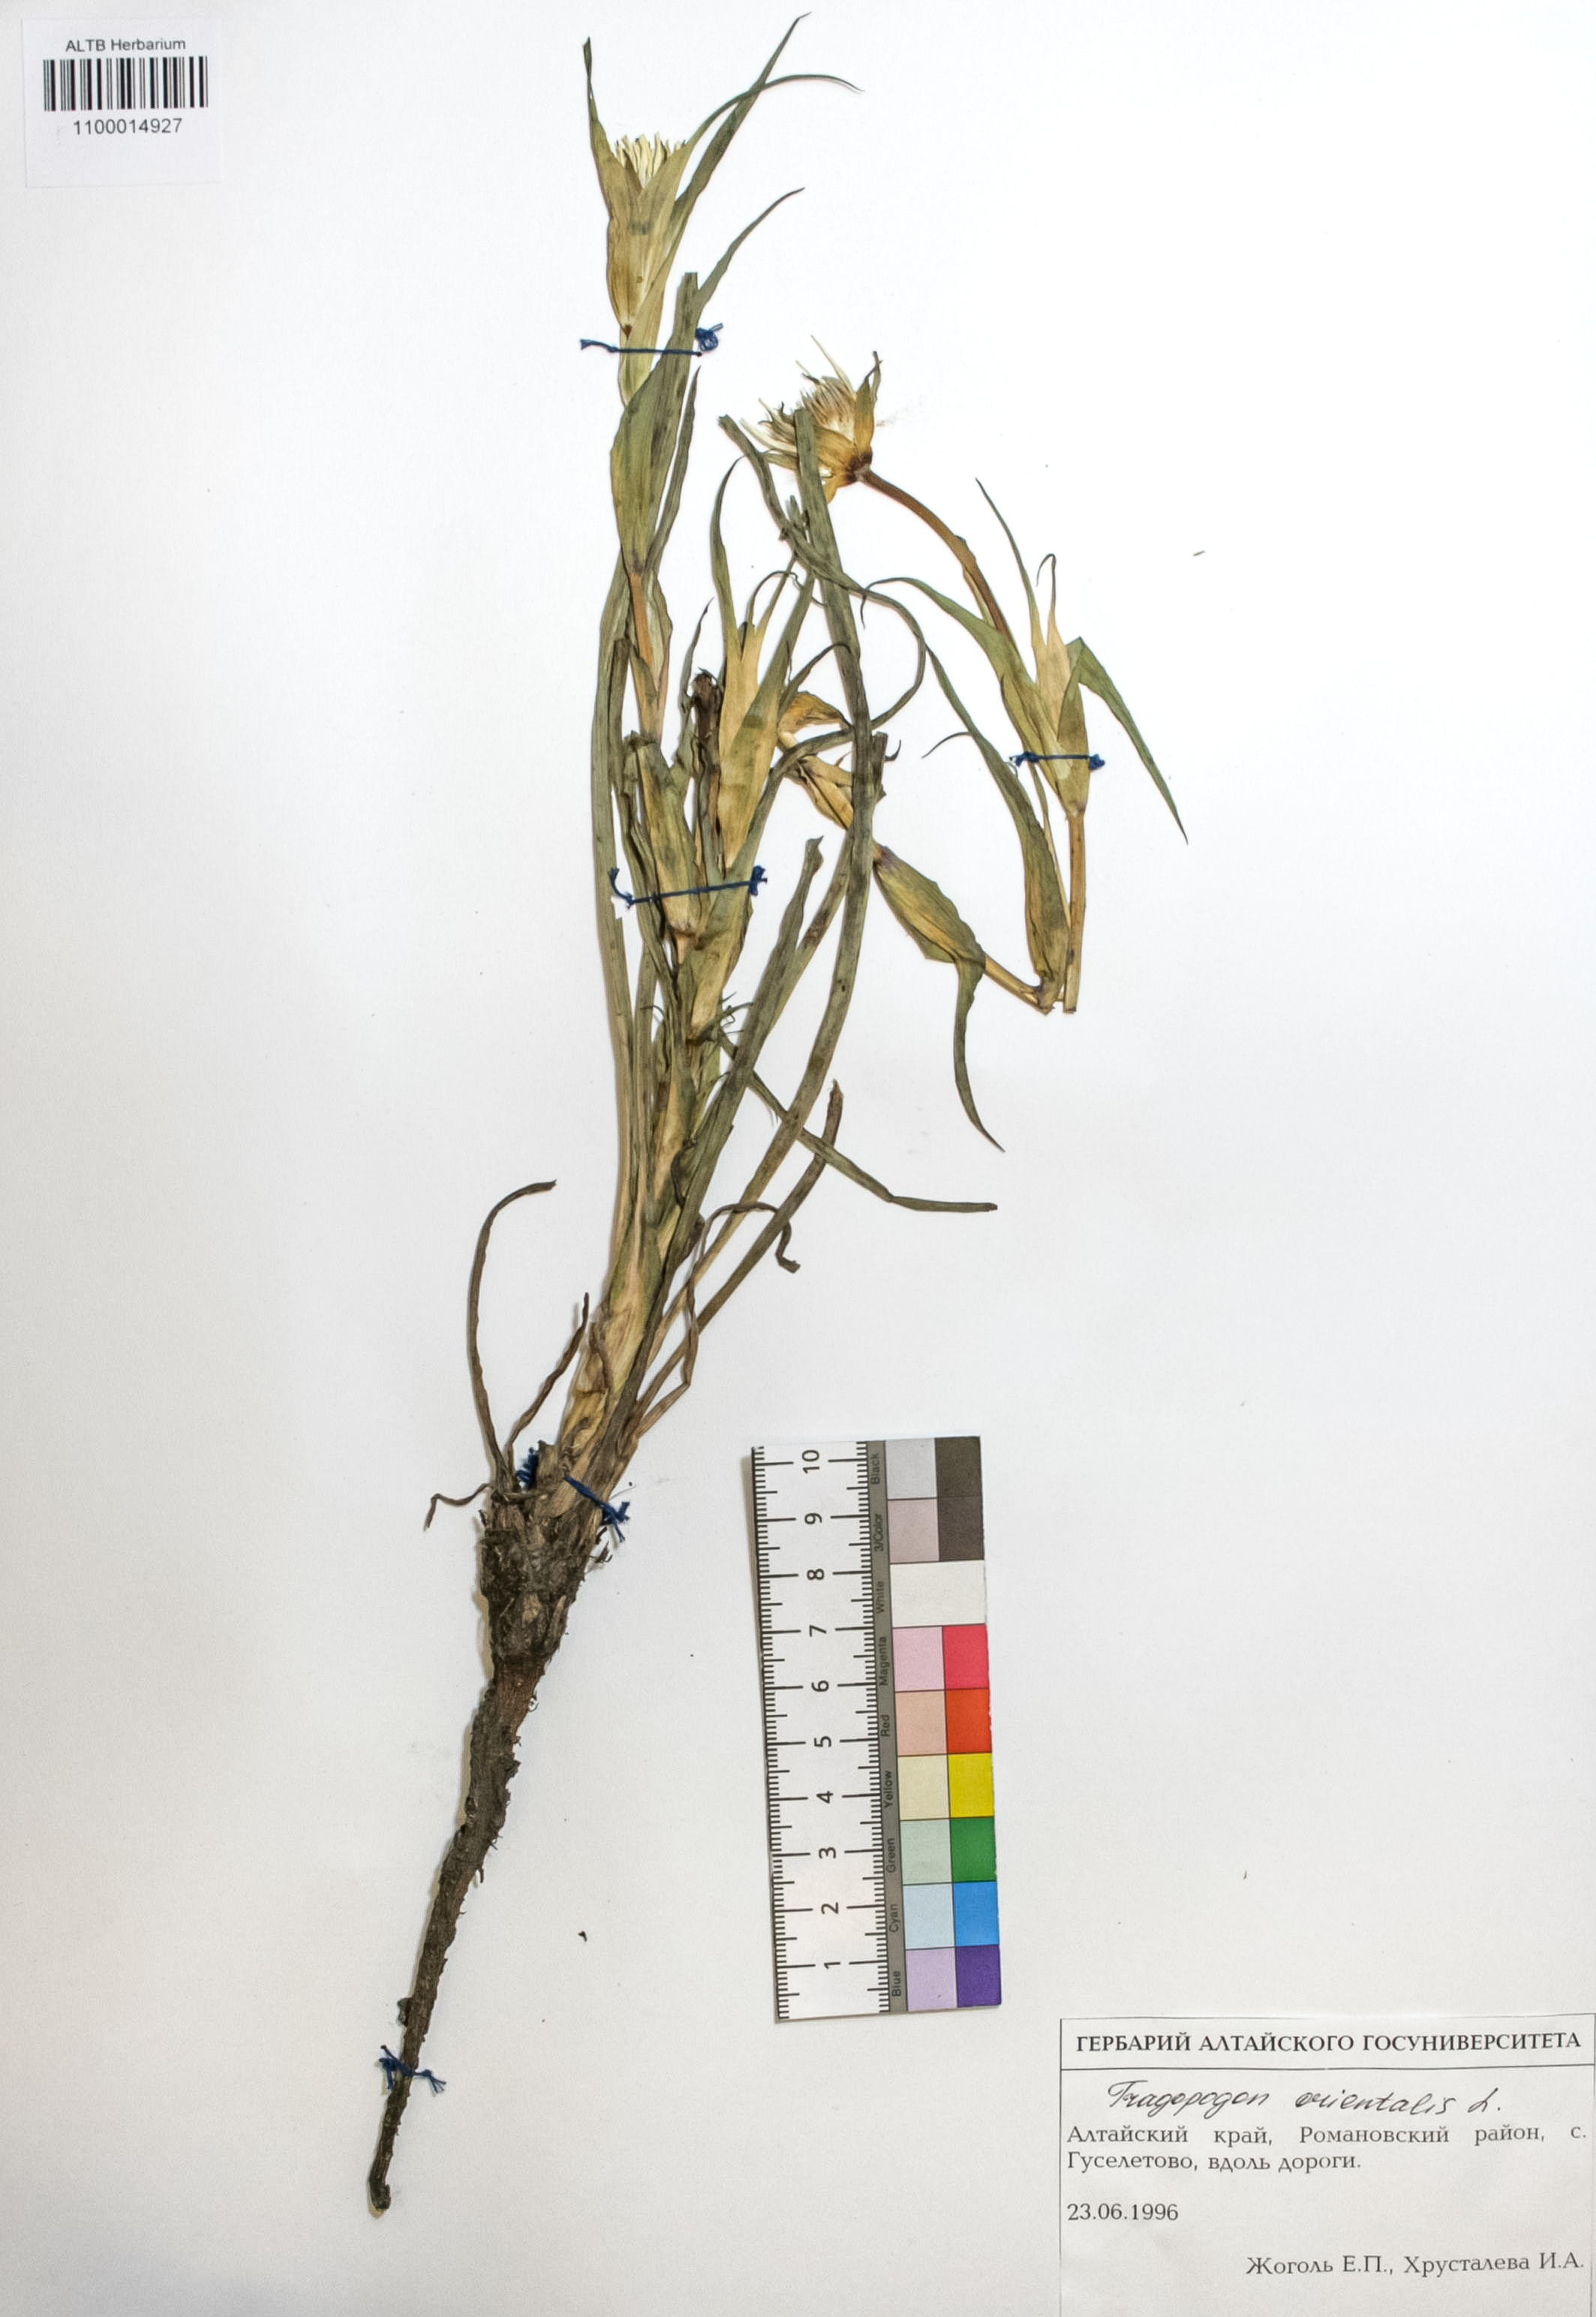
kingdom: Plantae
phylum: Tracheophyta
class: Magnoliopsida
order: Asterales
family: Asteraceae
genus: Tragopogon
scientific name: Tragopogon orientalis
